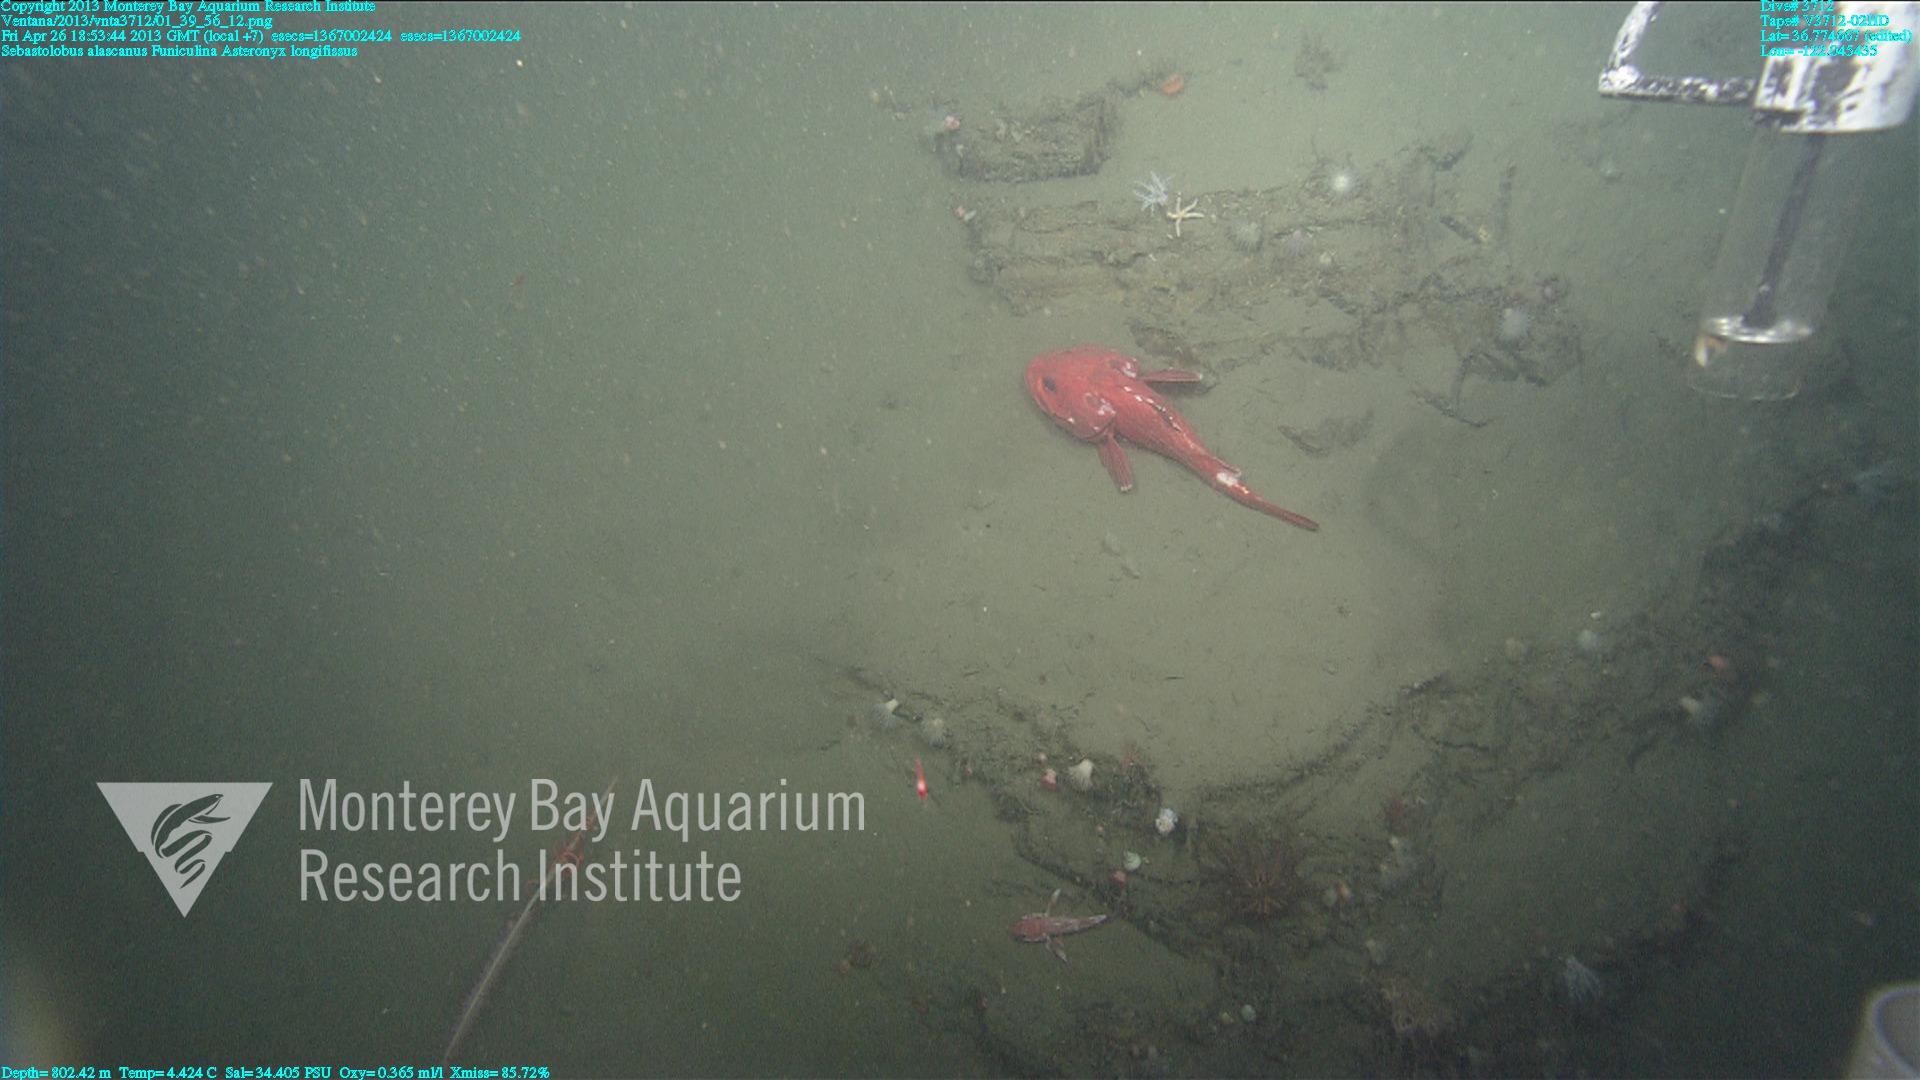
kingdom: Animalia
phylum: Cnidaria
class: Anthozoa
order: Scleralcyonacea
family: Funiculinidae
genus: Funiculina
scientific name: Funiculina
